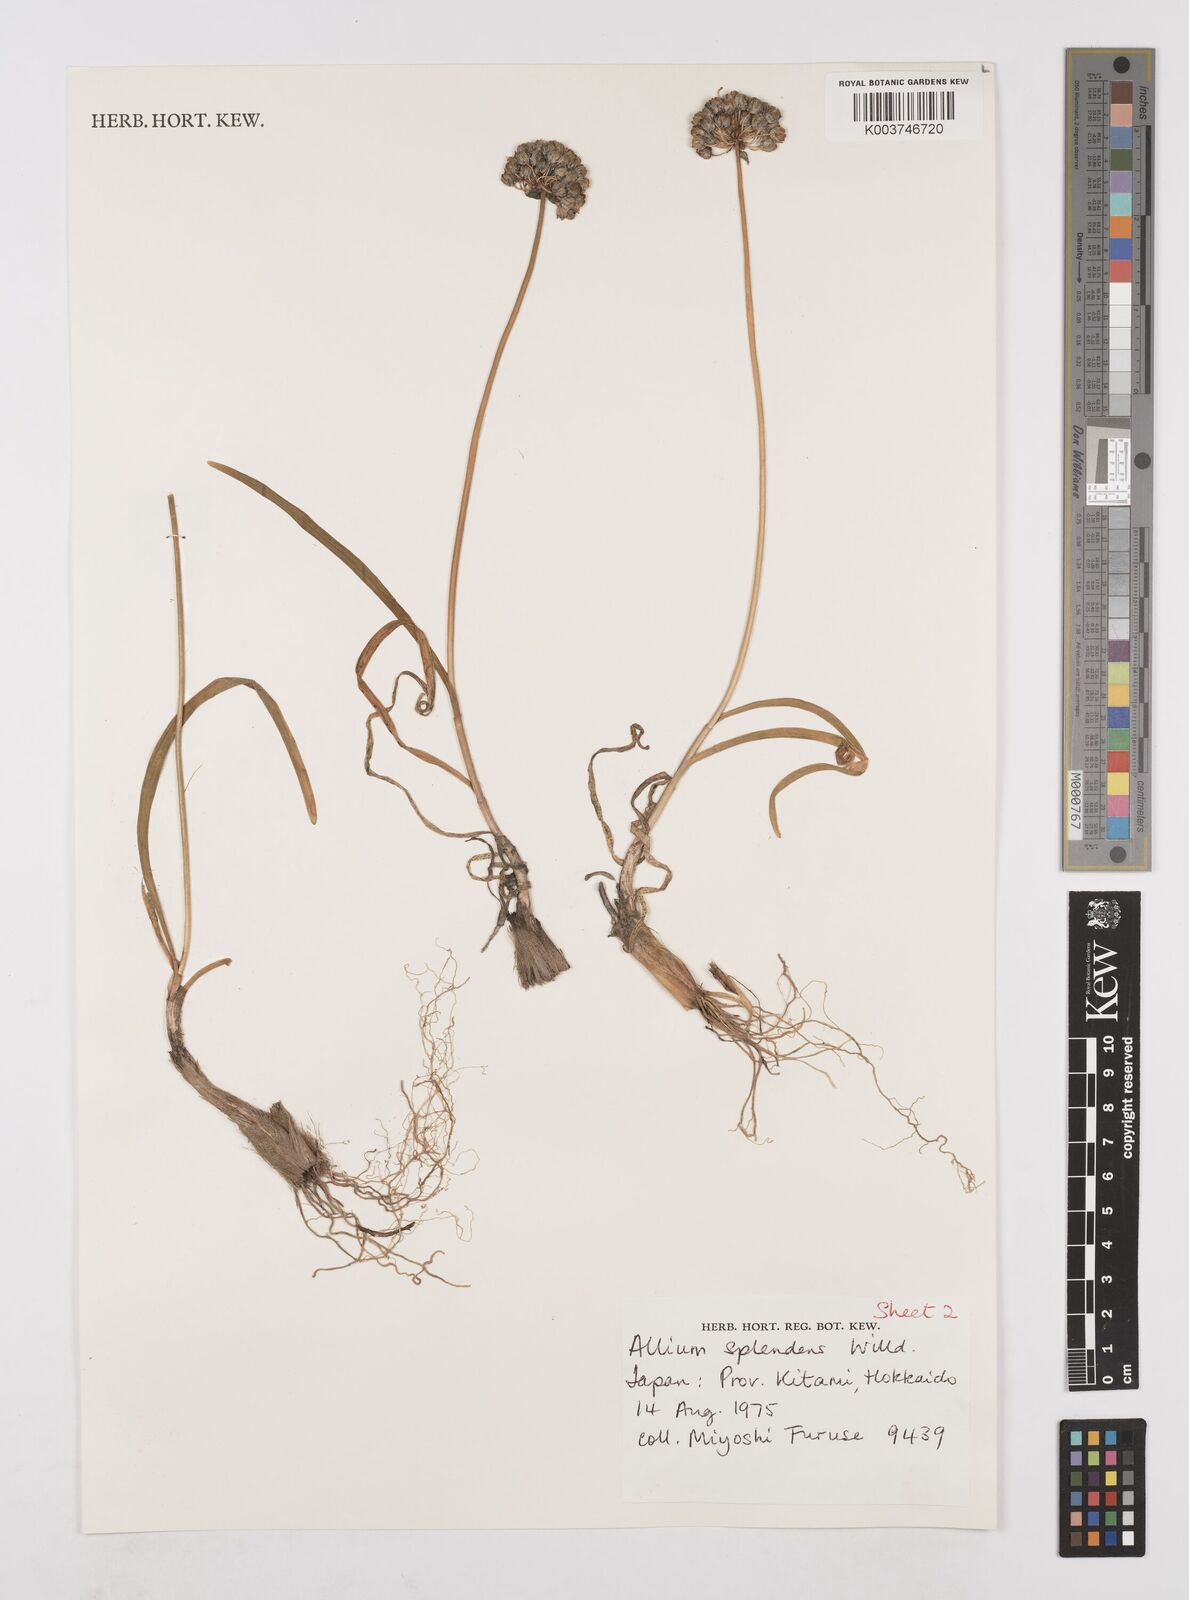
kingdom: Plantae
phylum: Tracheophyta
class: Liliopsida
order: Asparagales
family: Amaryllidaceae
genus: Allium
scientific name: Allium splendens
